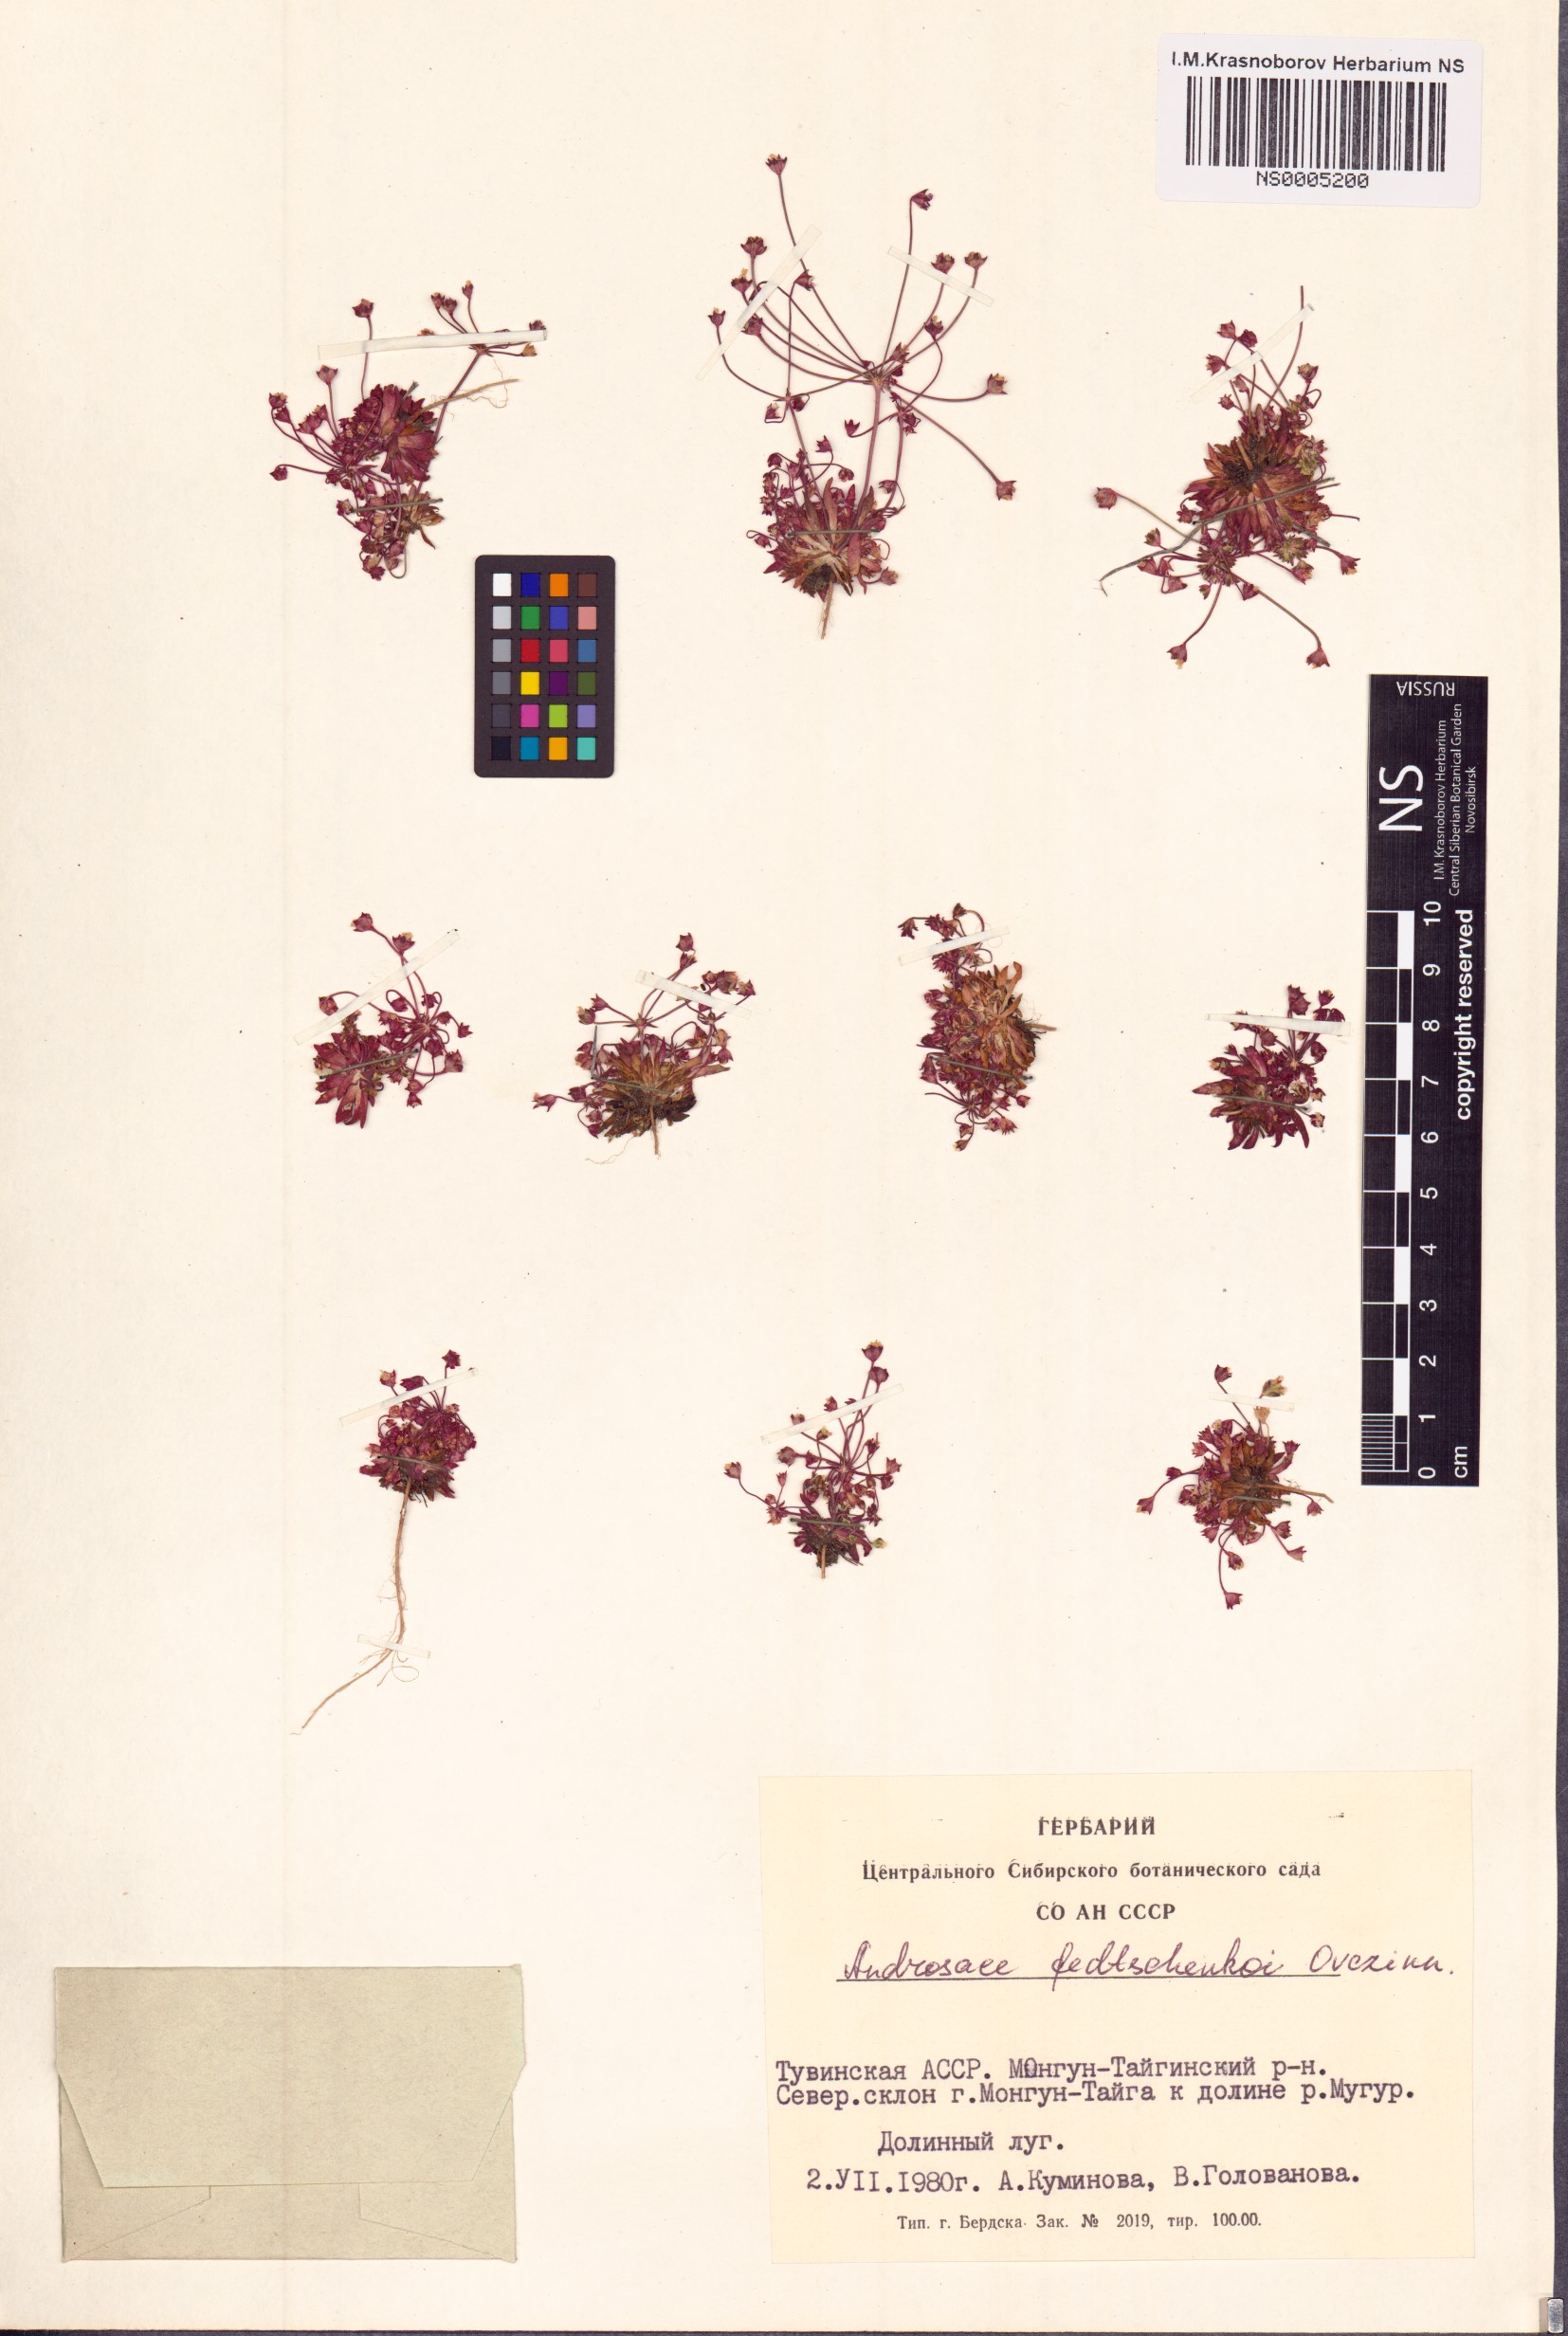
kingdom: Plantae
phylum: Tracheophyta
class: Magnoliopsida
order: Ericales
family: Primulaceae
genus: Androsace
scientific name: Androsace fedtschenkoi
